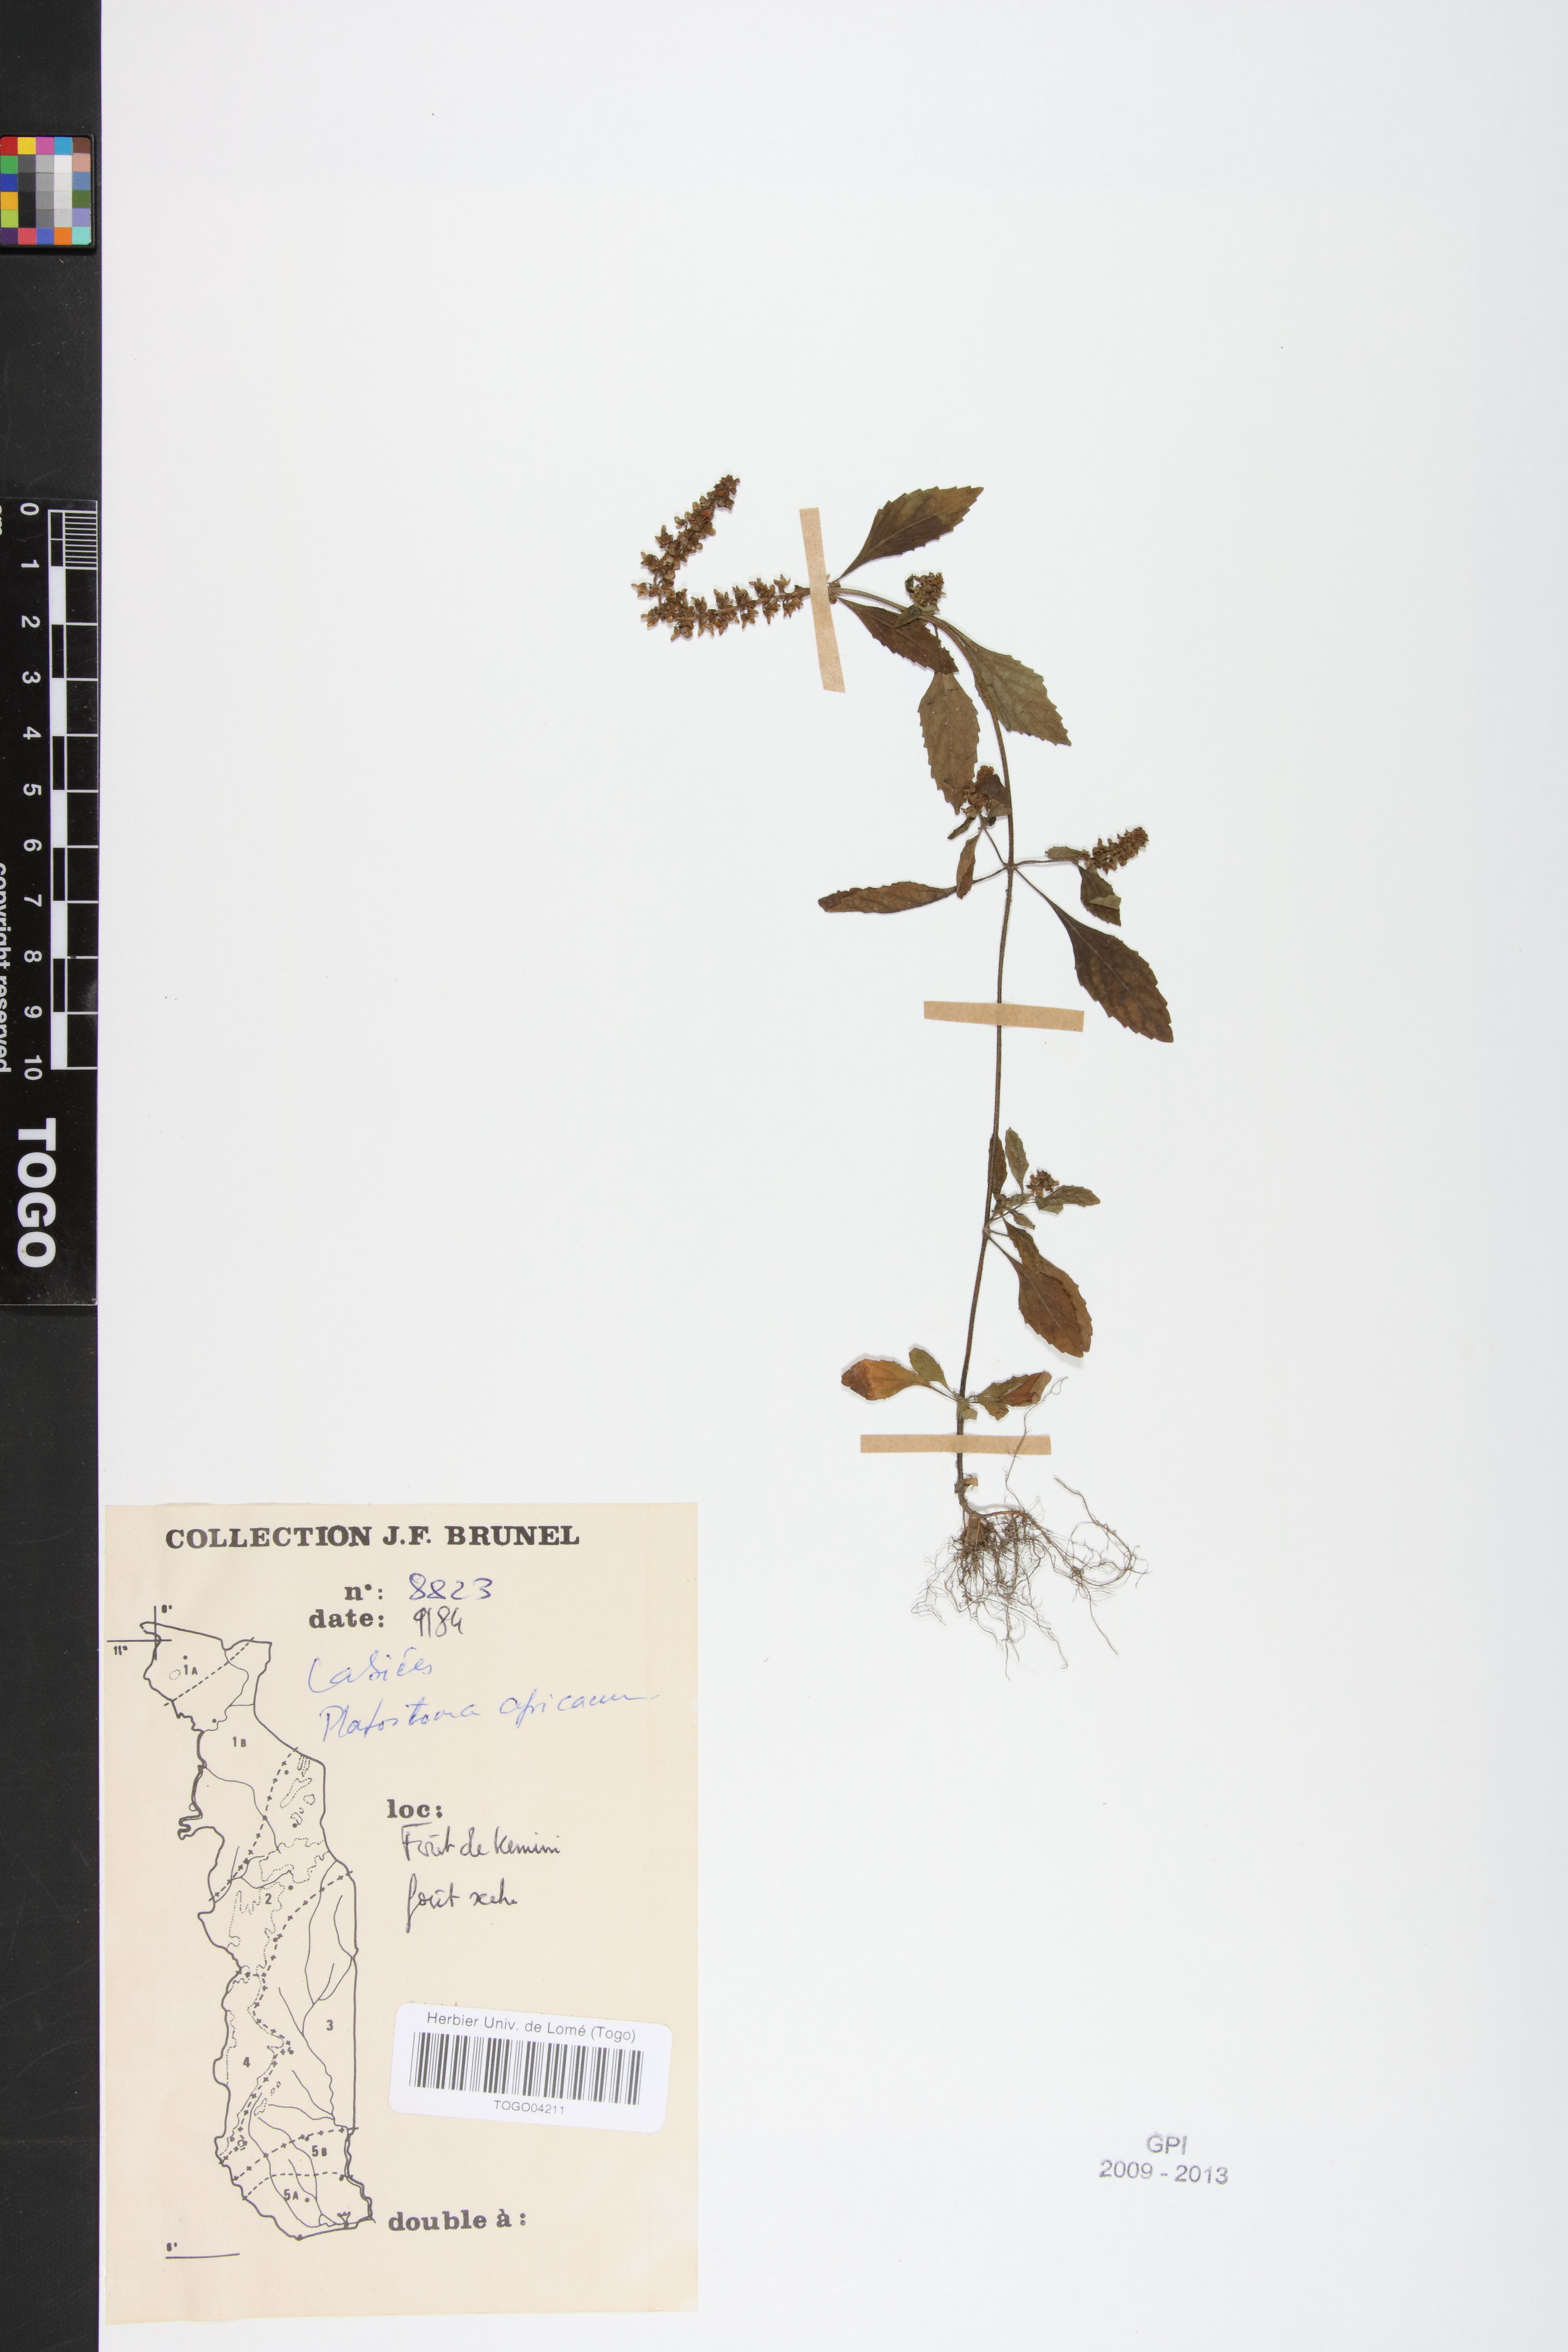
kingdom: Plantae
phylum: Tracheophyta
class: Magnoliopsida
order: Lamiales
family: Lamiaceae
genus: Platostoma
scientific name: Platostoma africanum
